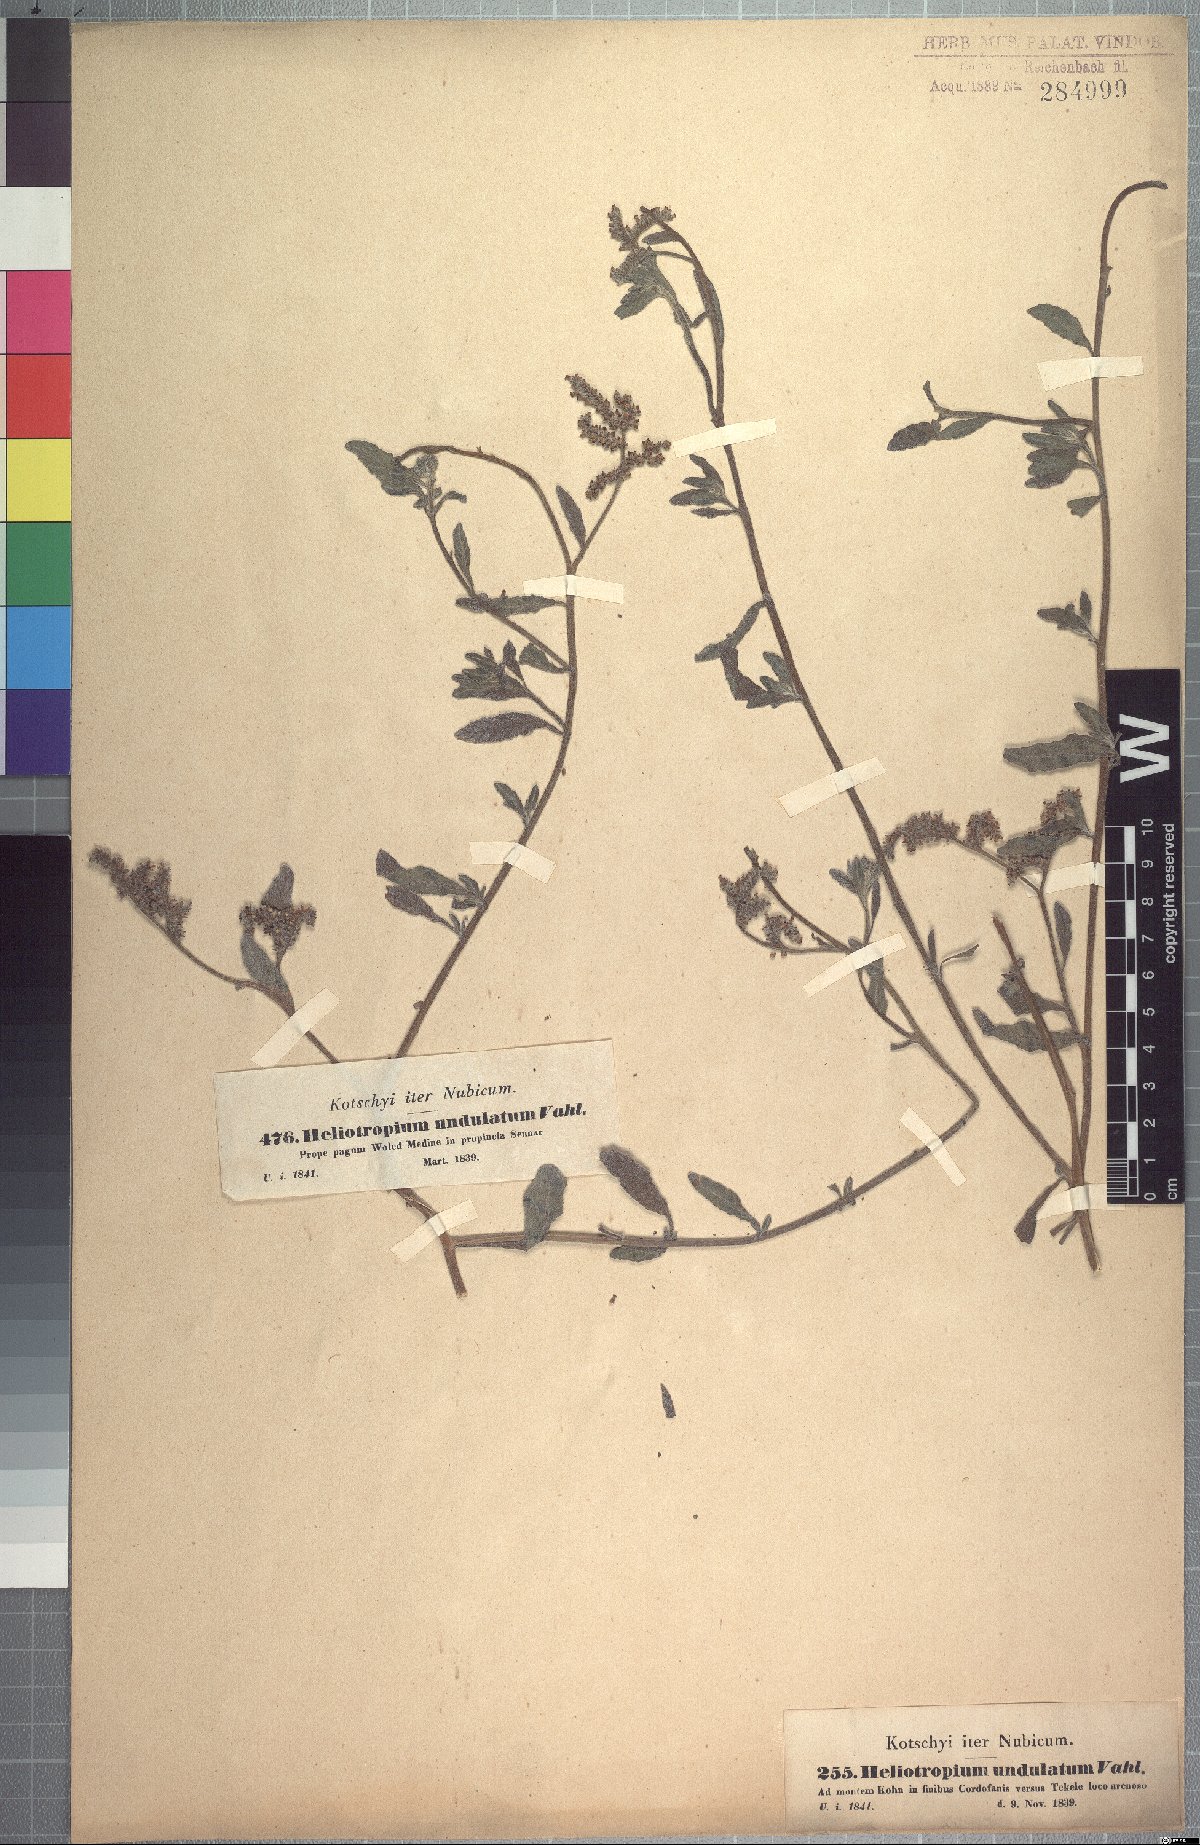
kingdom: Plantae
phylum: Tracheophyta
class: Magnoliopsida
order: Boraginales
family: Heliotropiaceae
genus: Heliotropium
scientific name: Heliotropium bacciferum
